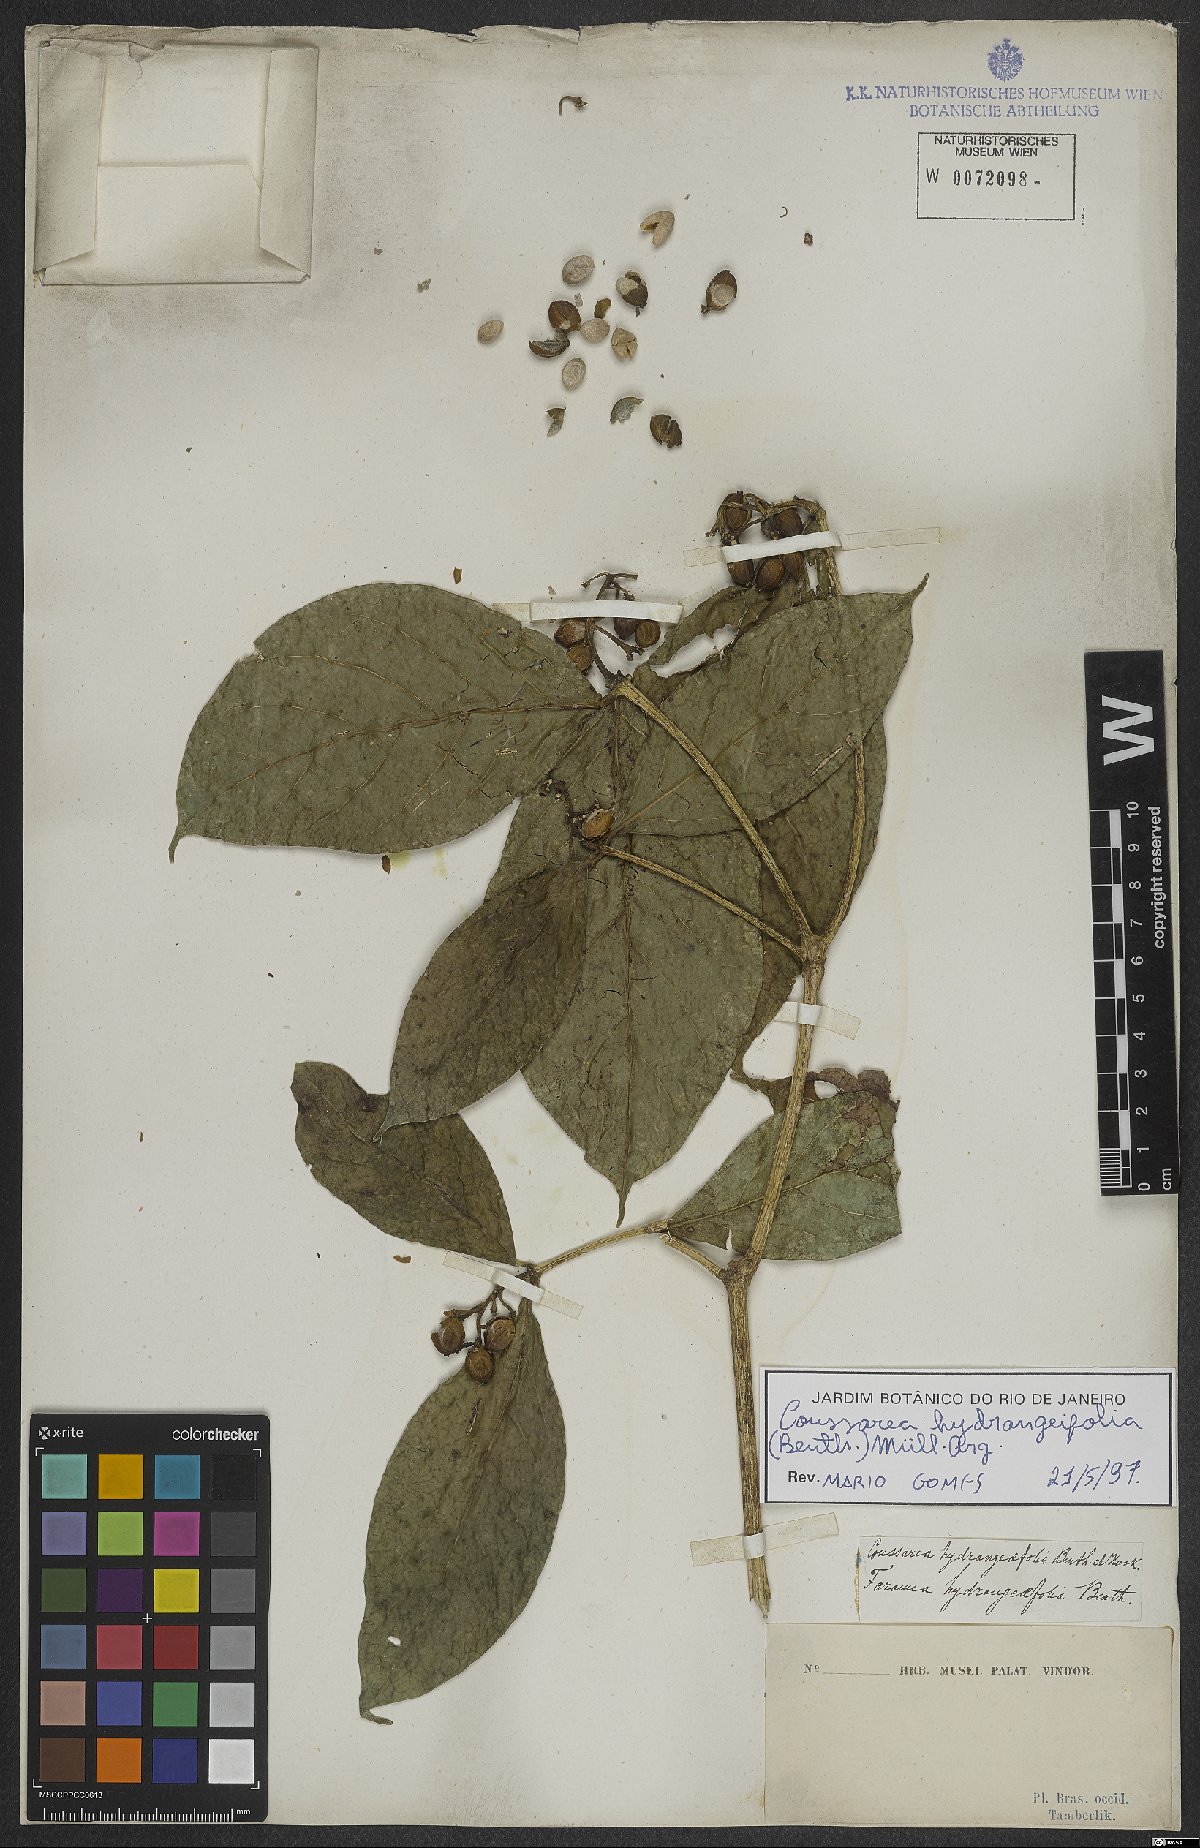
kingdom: Plantae
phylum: Tracheophyta
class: Magnoliopsida
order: Gentianales
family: Rubiaceae
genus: Coussarea
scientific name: Coussarea hydrangeifolia
